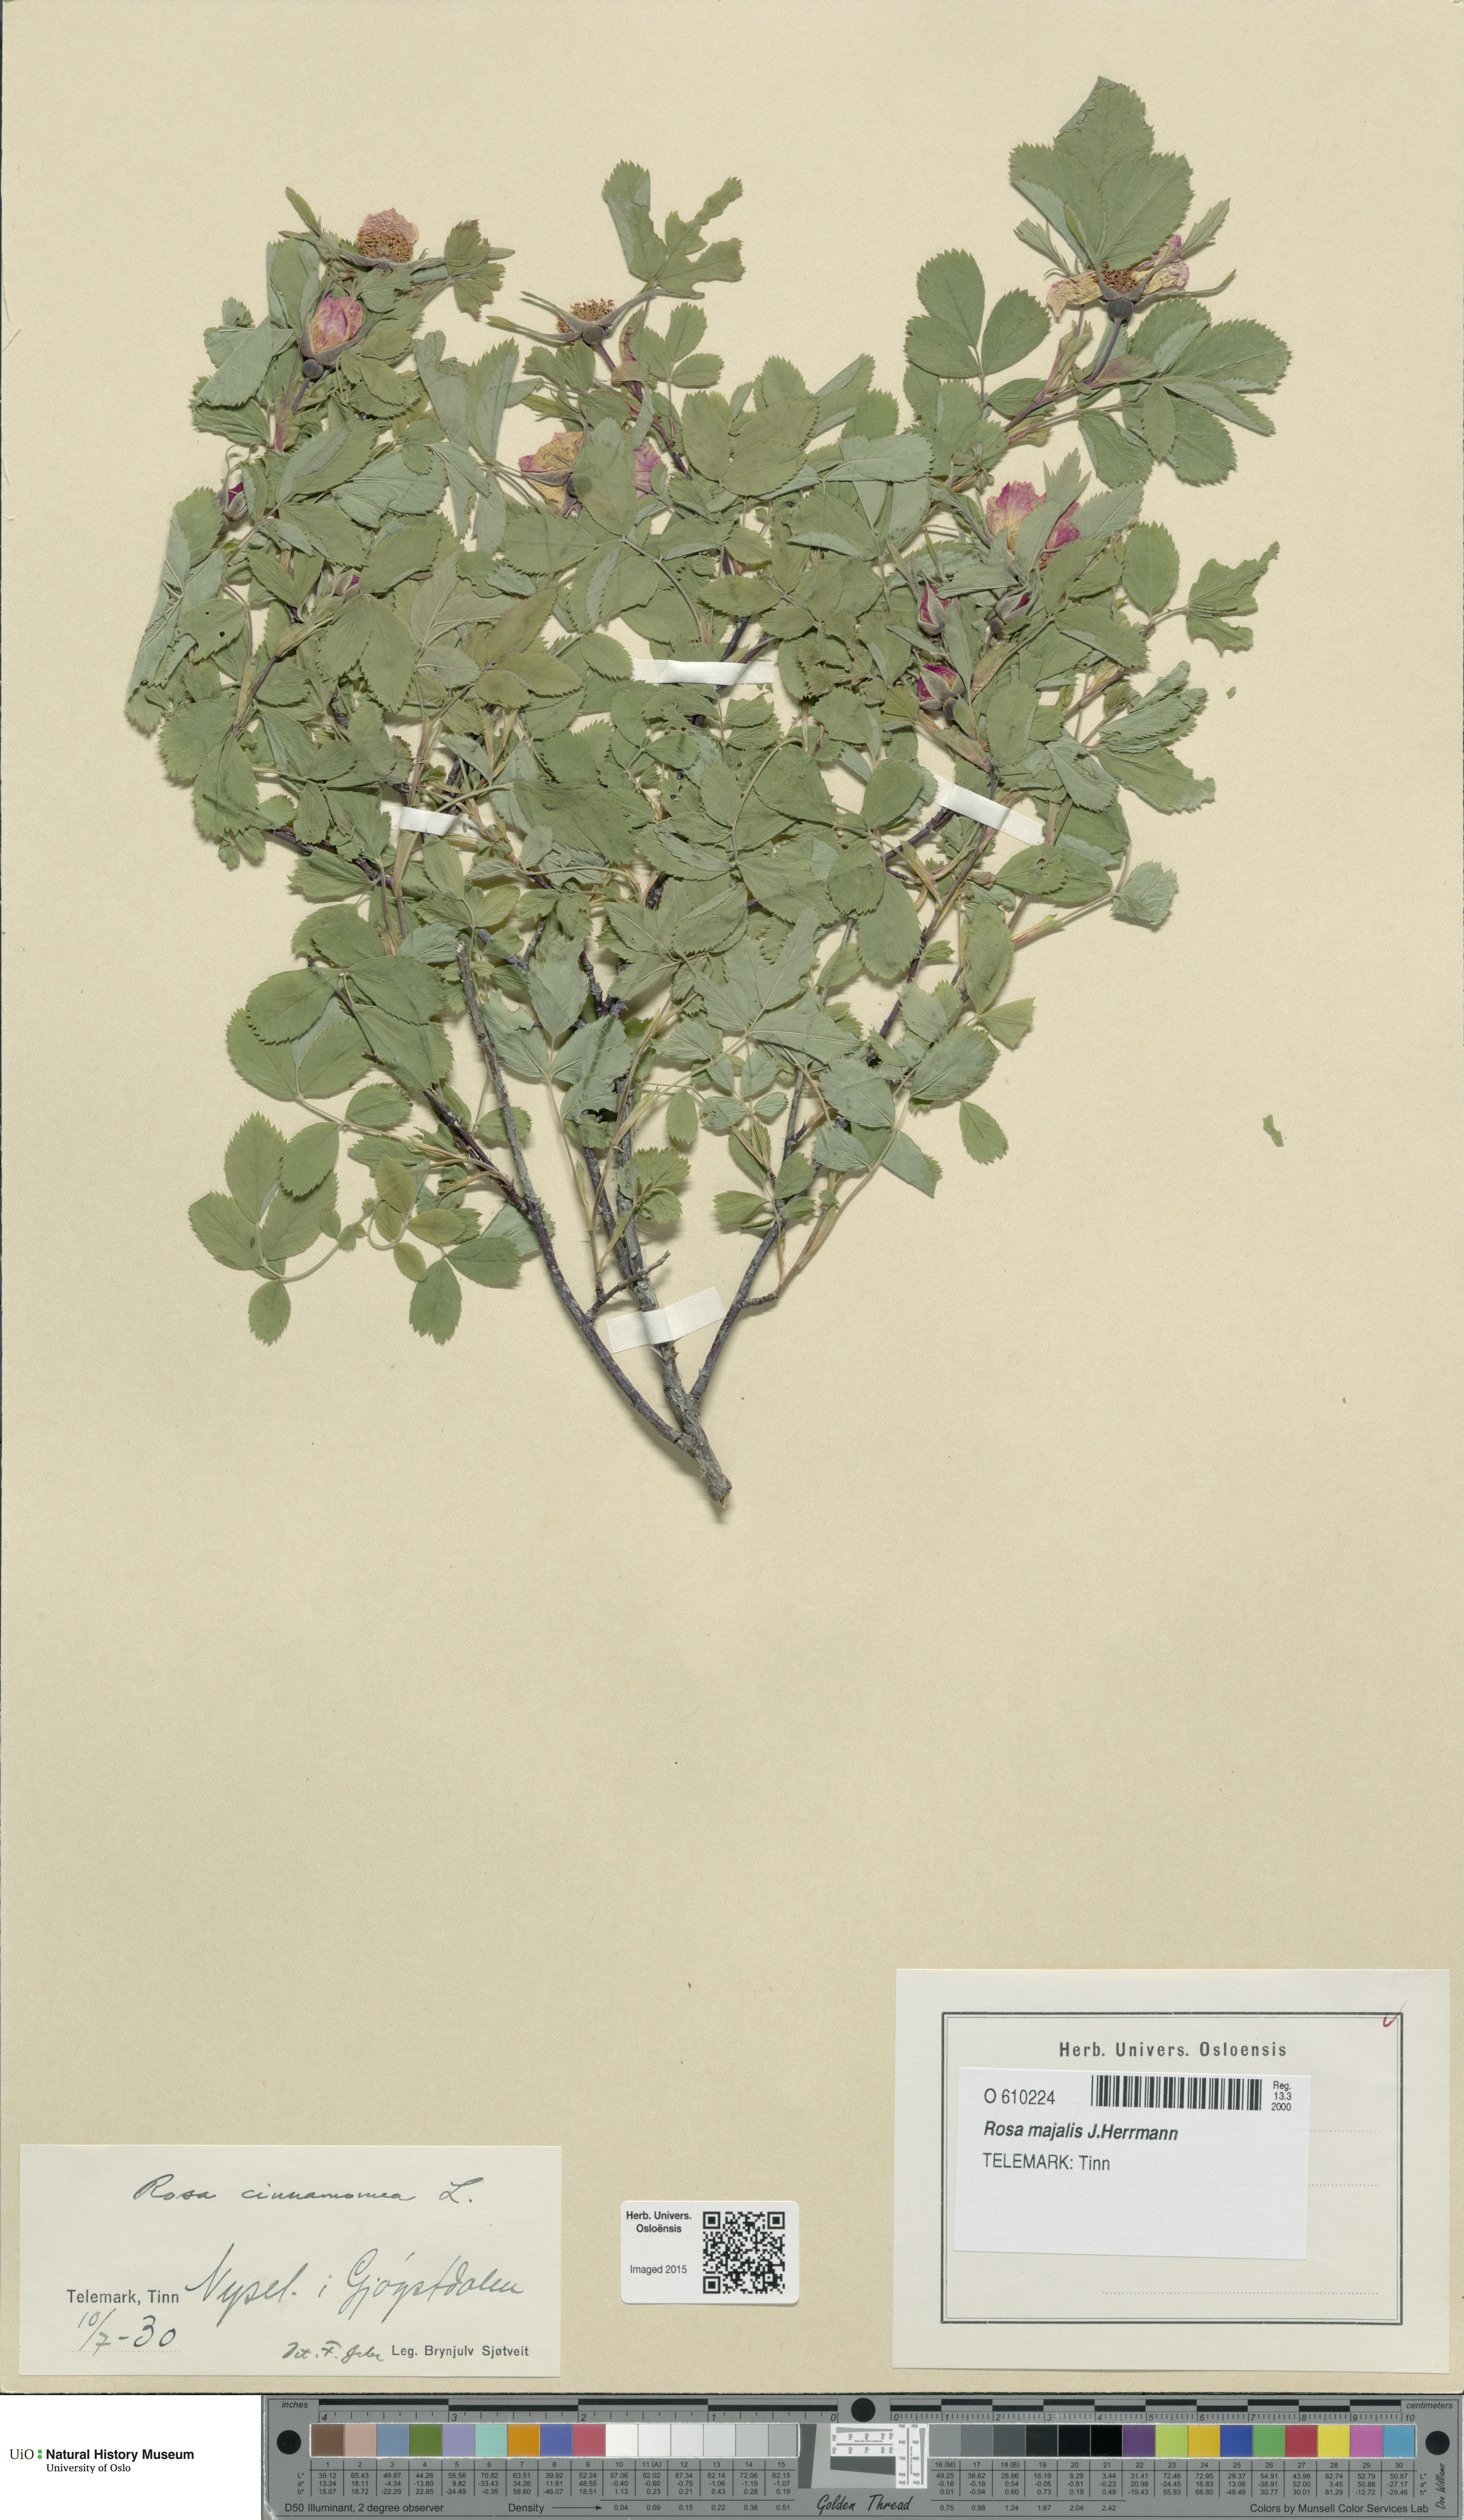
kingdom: Plantae
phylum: Tracheophyta
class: Magnoliopsida
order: Rosales
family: Rosaceae
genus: Rosa
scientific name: Rosa pendulina
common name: Alpine rose
